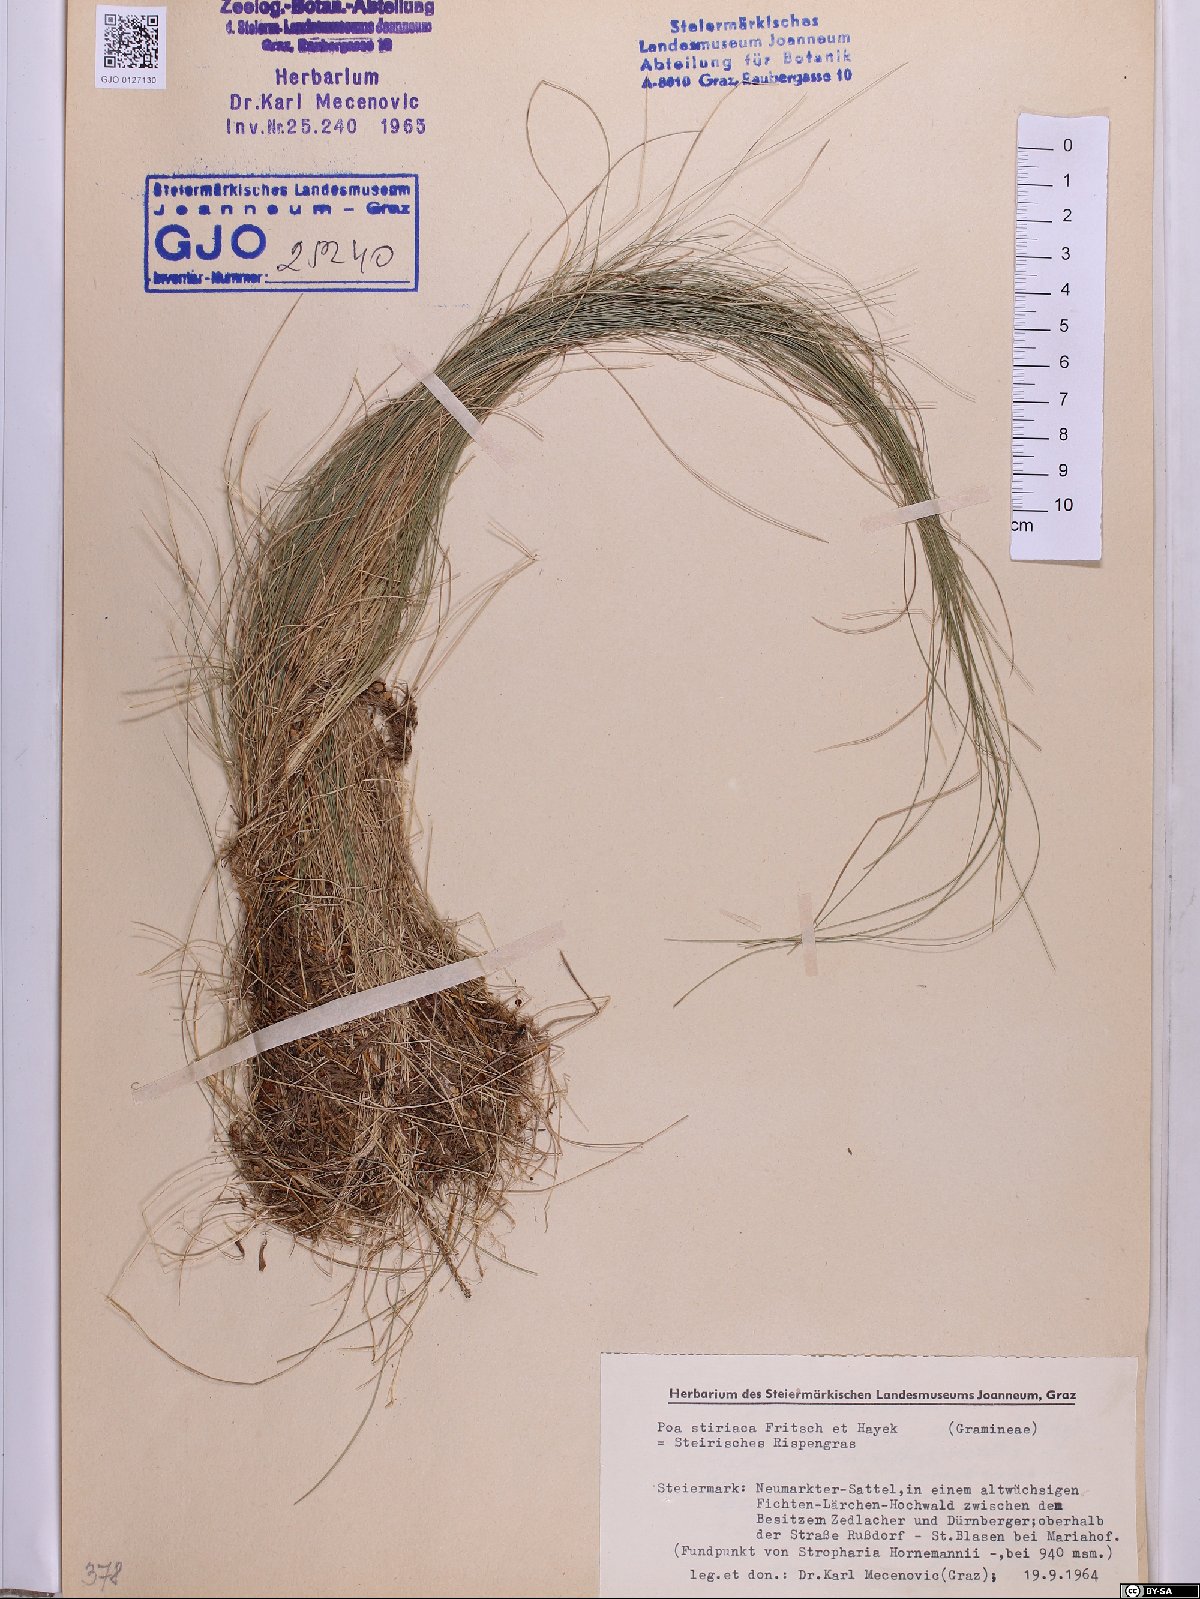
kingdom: Plantae
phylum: Tracheophyta
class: Liliopsida
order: Poales
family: Poaceae
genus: Poa
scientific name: Poa stiriaca
